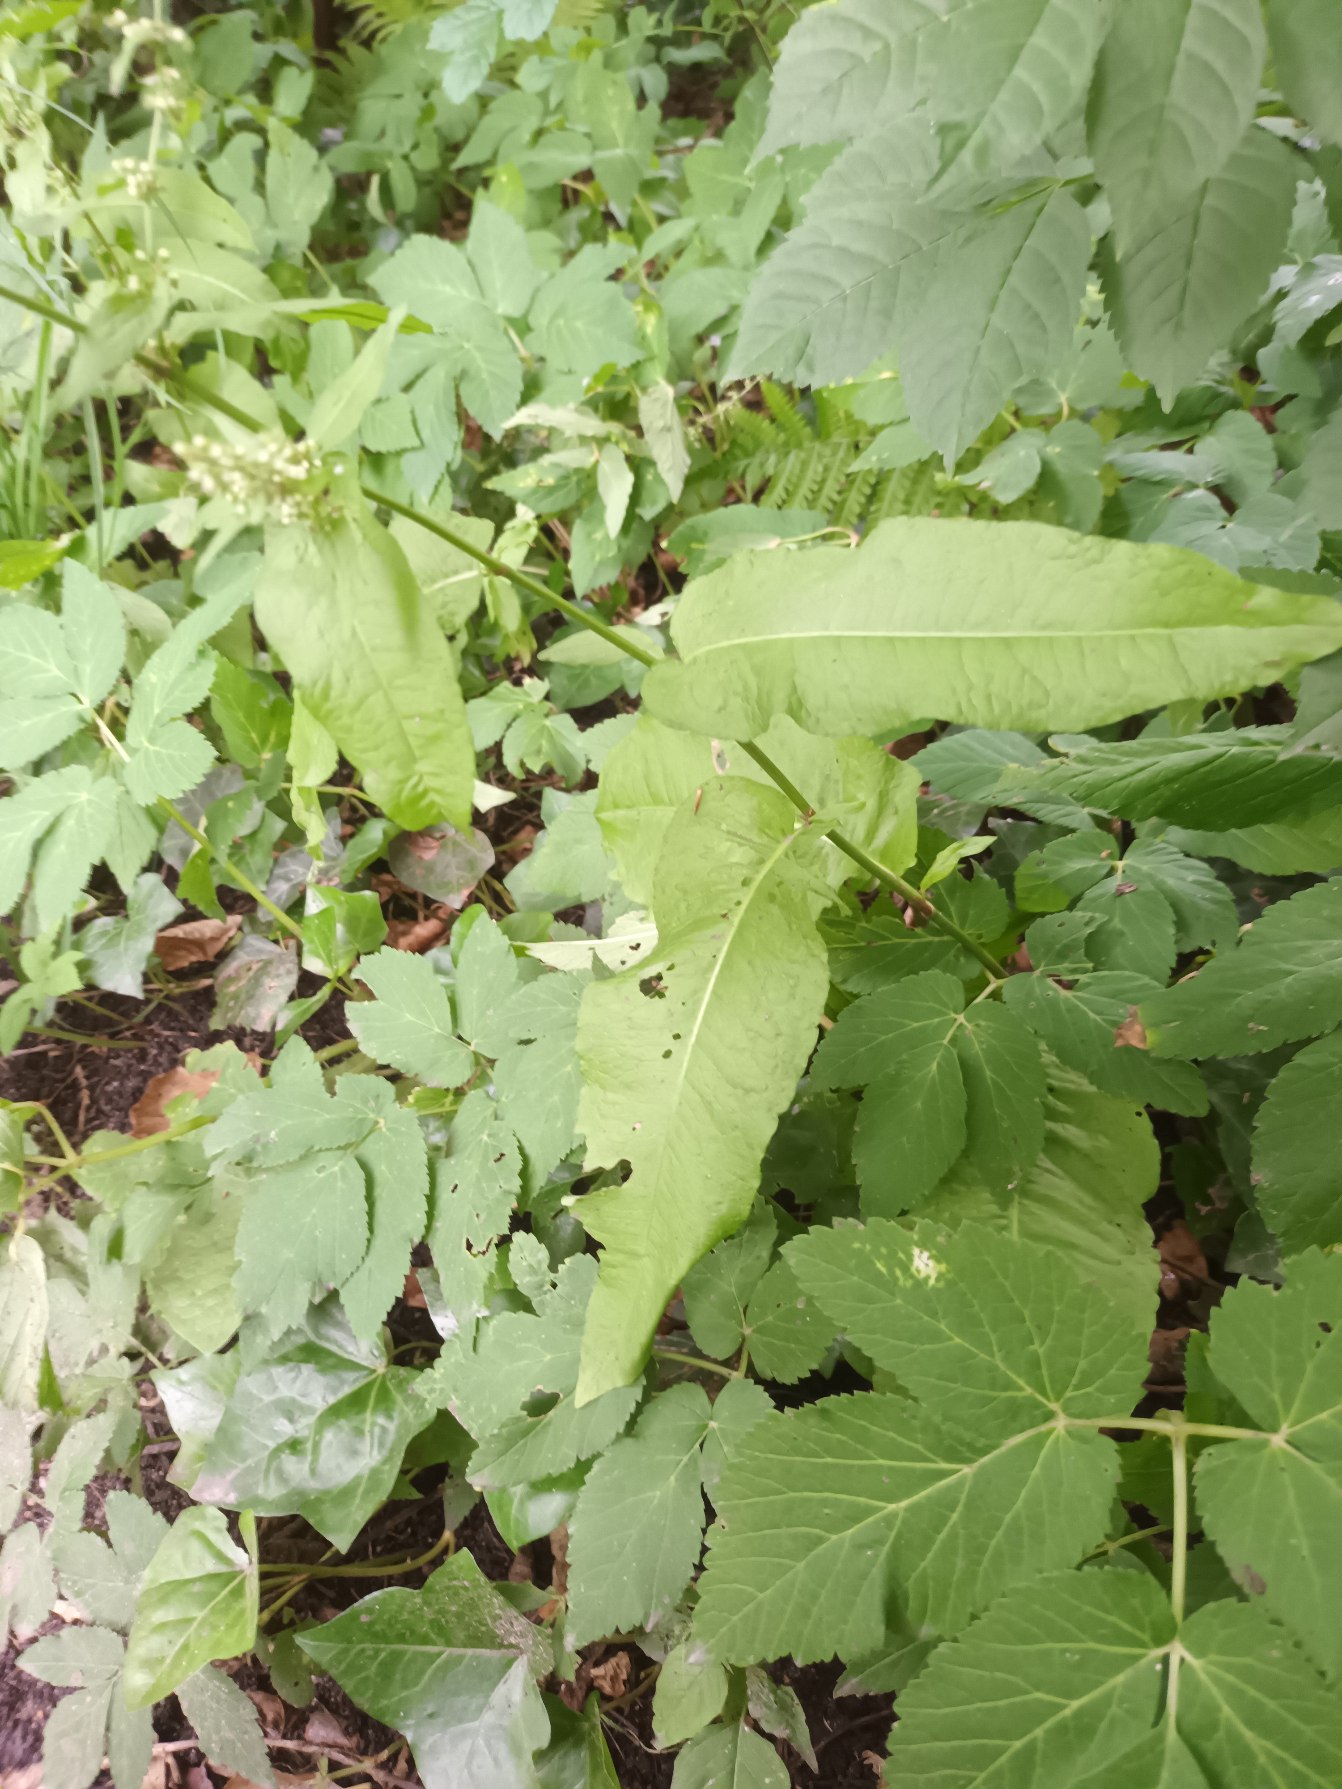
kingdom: Plantae
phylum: Tracheophyta
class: Magnoliopsida
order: Caryophyllales
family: Polygonaceae
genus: Rumex
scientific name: Rumex sanguineus
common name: Skov-skræppe
